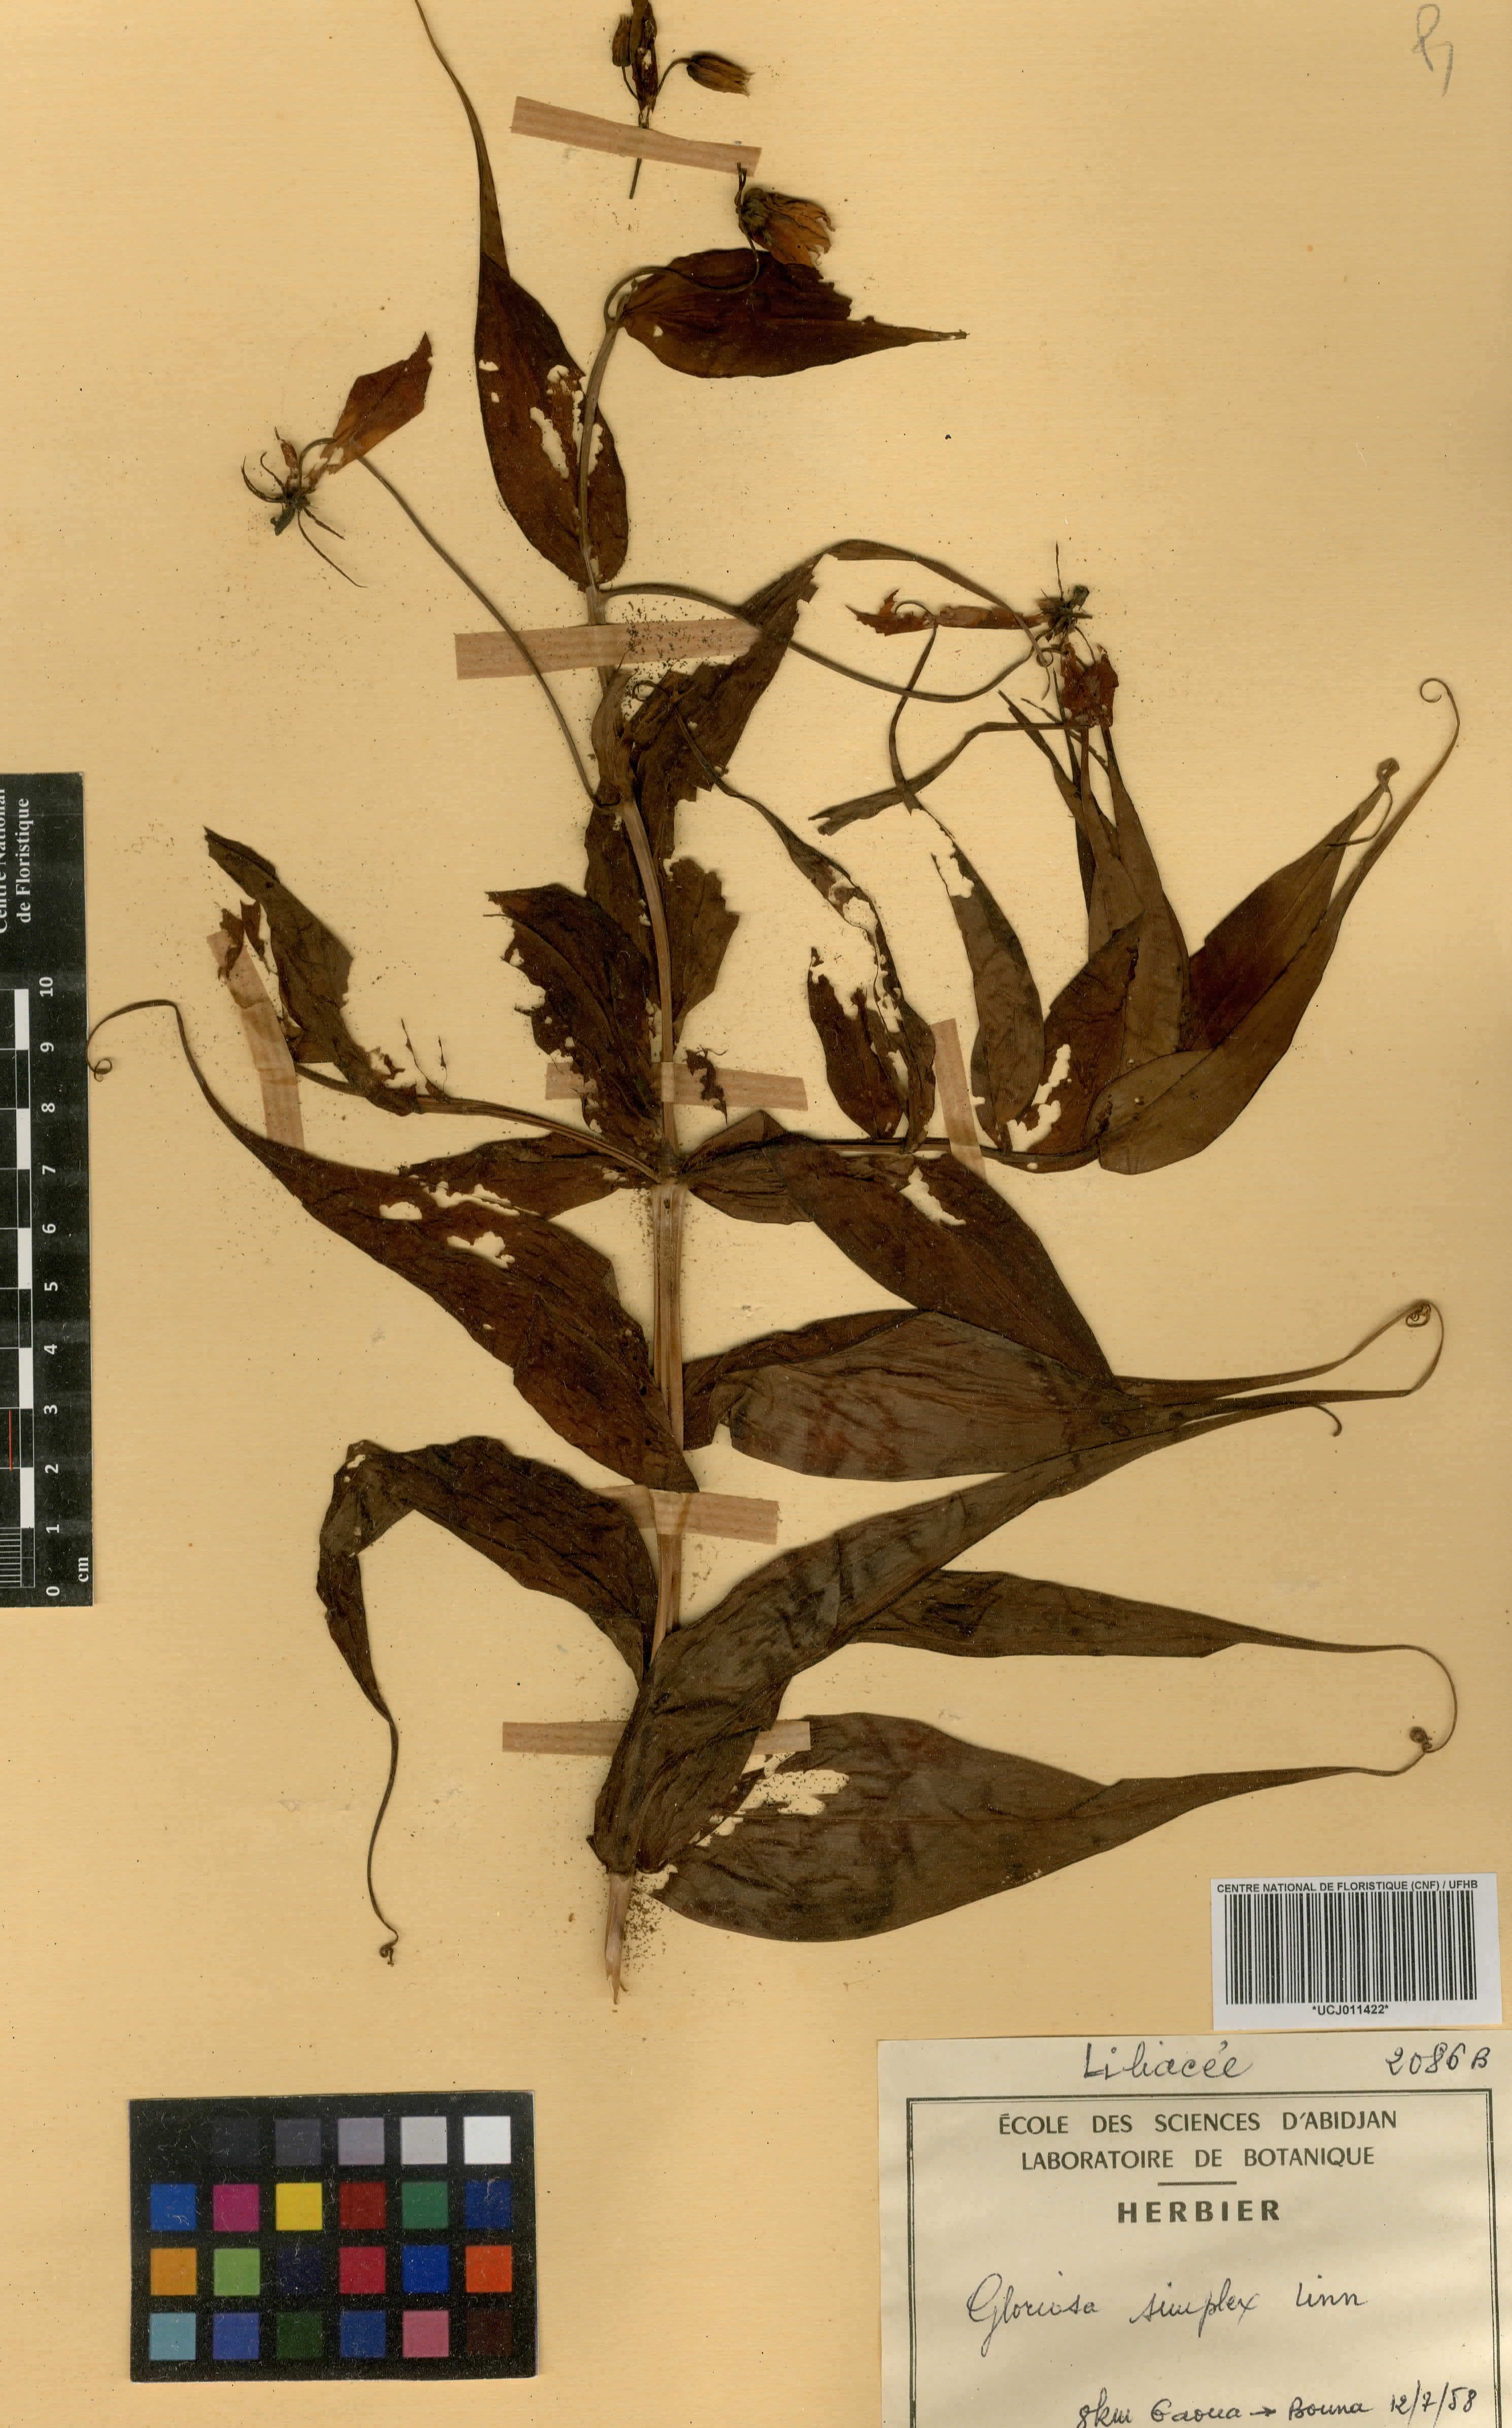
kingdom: Plantae
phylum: Tracheophyta
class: Liliopsida
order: Liliales
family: Colchicaceae
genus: Gloriosa
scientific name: Gloriosa simplex
